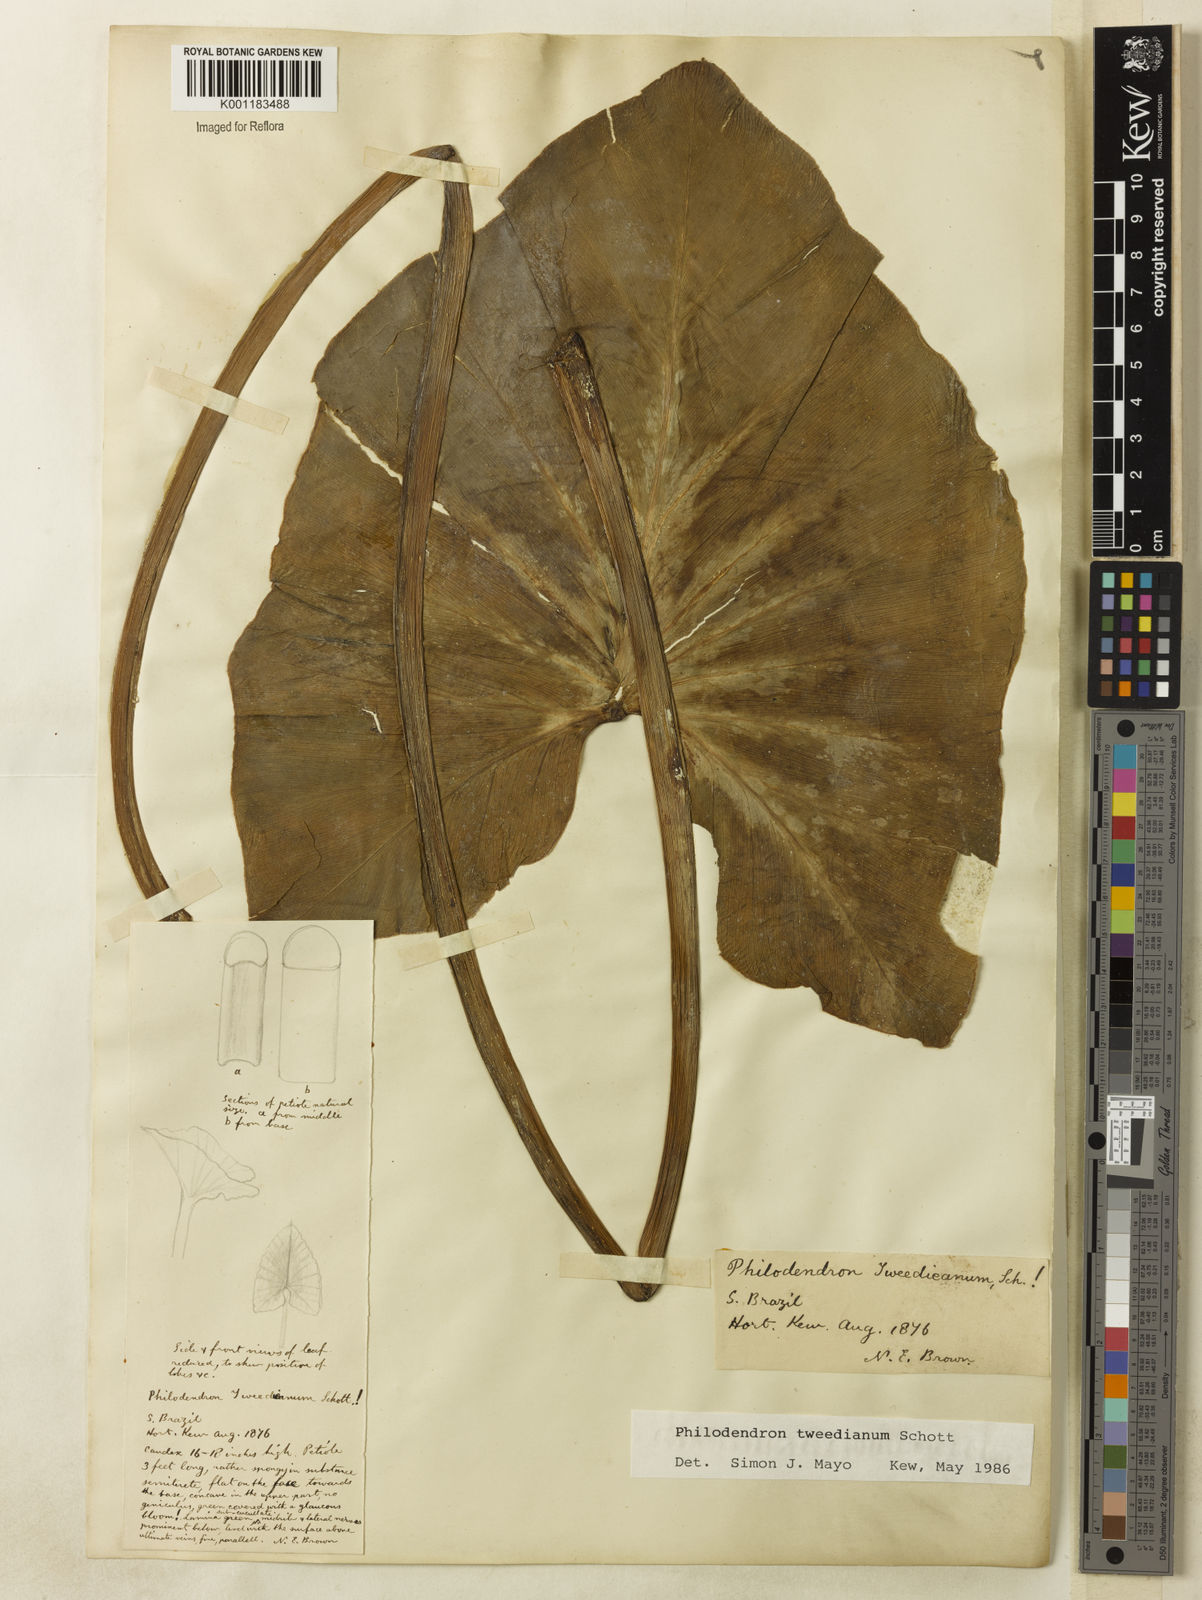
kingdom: Plantae
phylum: Tracheophyta
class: Liliopsida
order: Alismatales
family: Araceae
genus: Thaumatophyllum
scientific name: Thaumatophyllum tweedieanum
